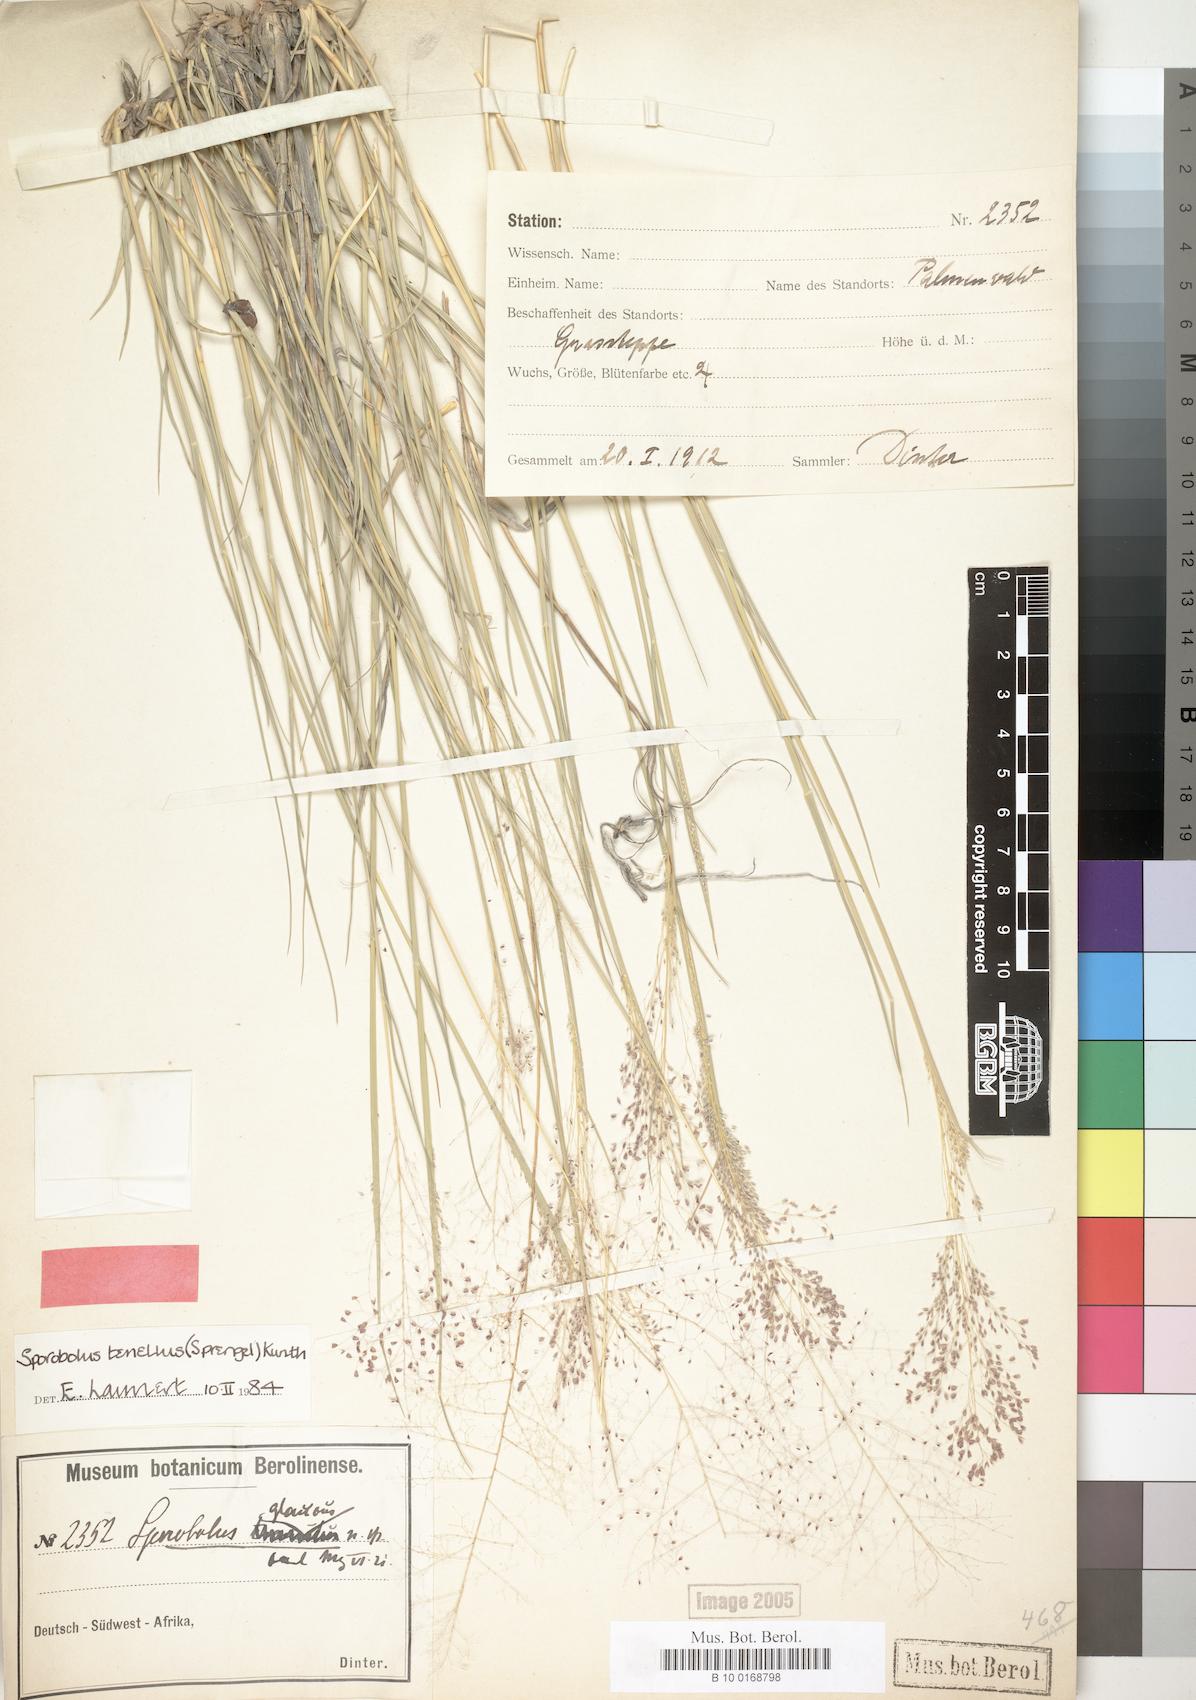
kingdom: Plantae
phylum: Tracheophyta
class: Liliopsida
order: Poales
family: Poaceae
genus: Sporobolus
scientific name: Sporobolus acinifolius
